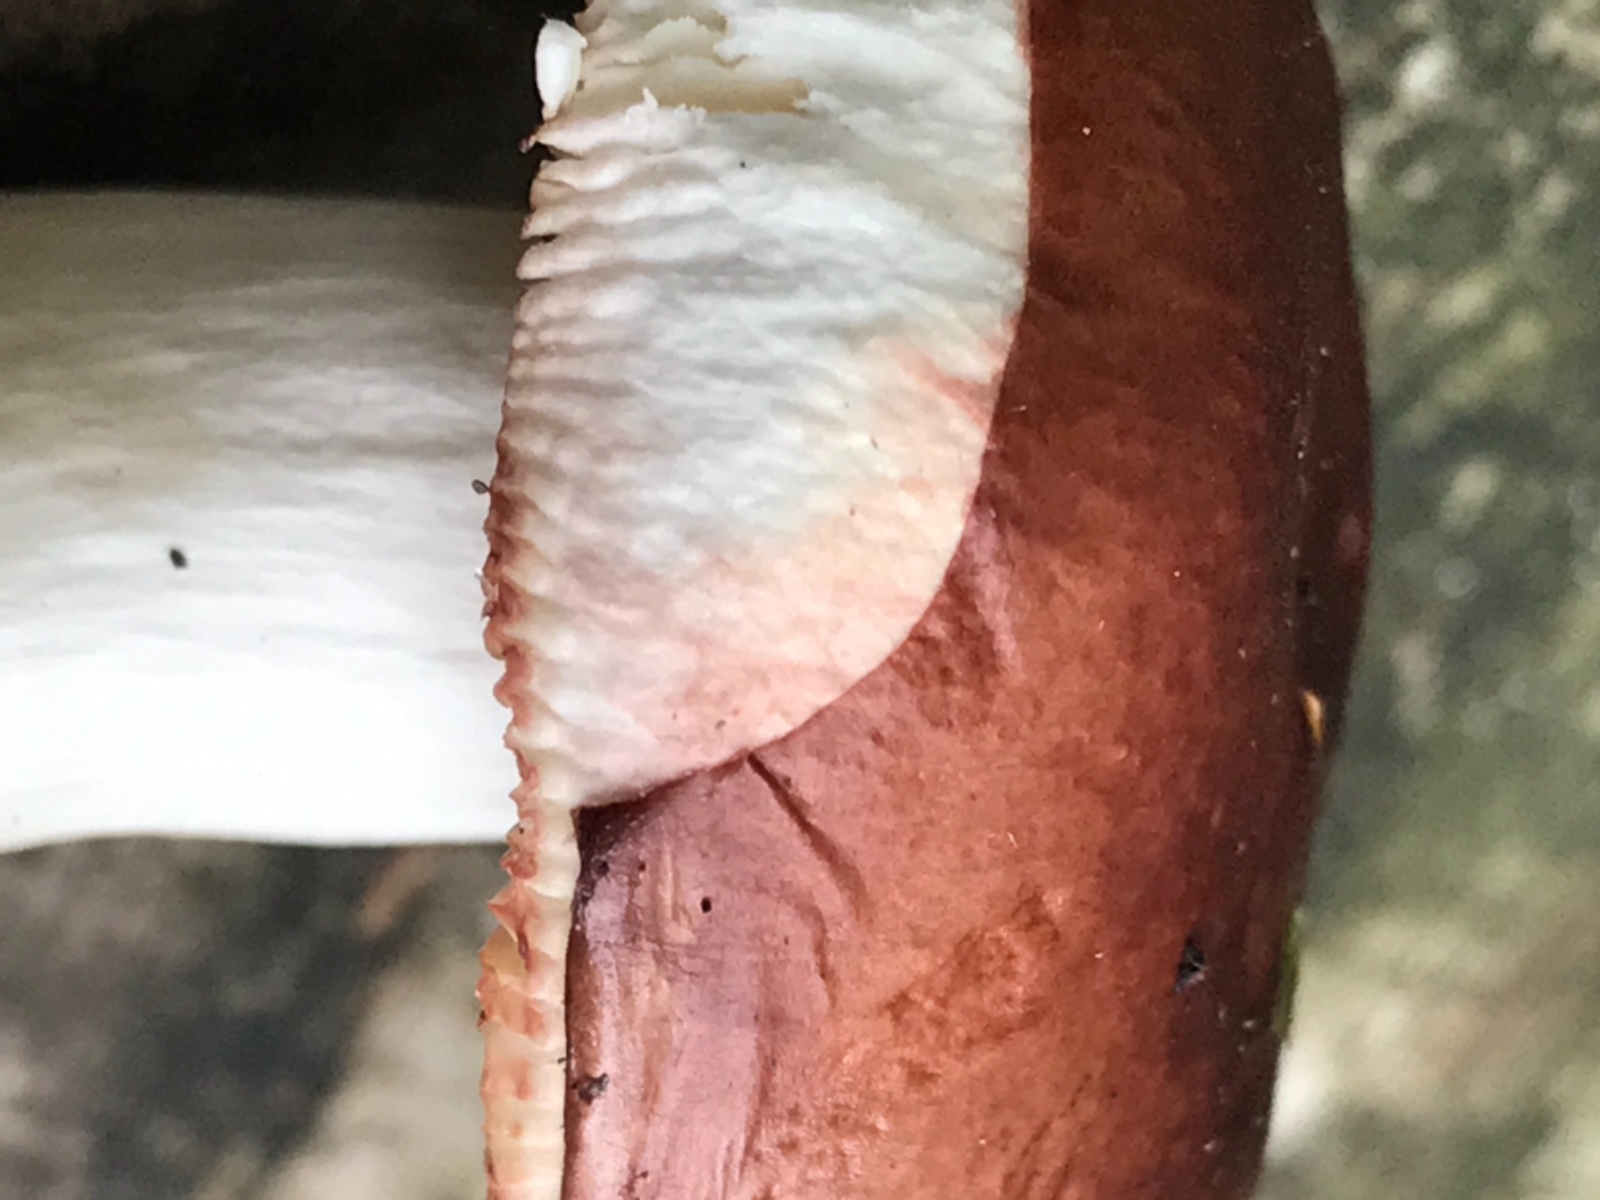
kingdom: Fungi
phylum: Basidiomycota
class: Agaricomycetes
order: Russulales
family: Russulaceae
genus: Russula
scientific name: Russula
